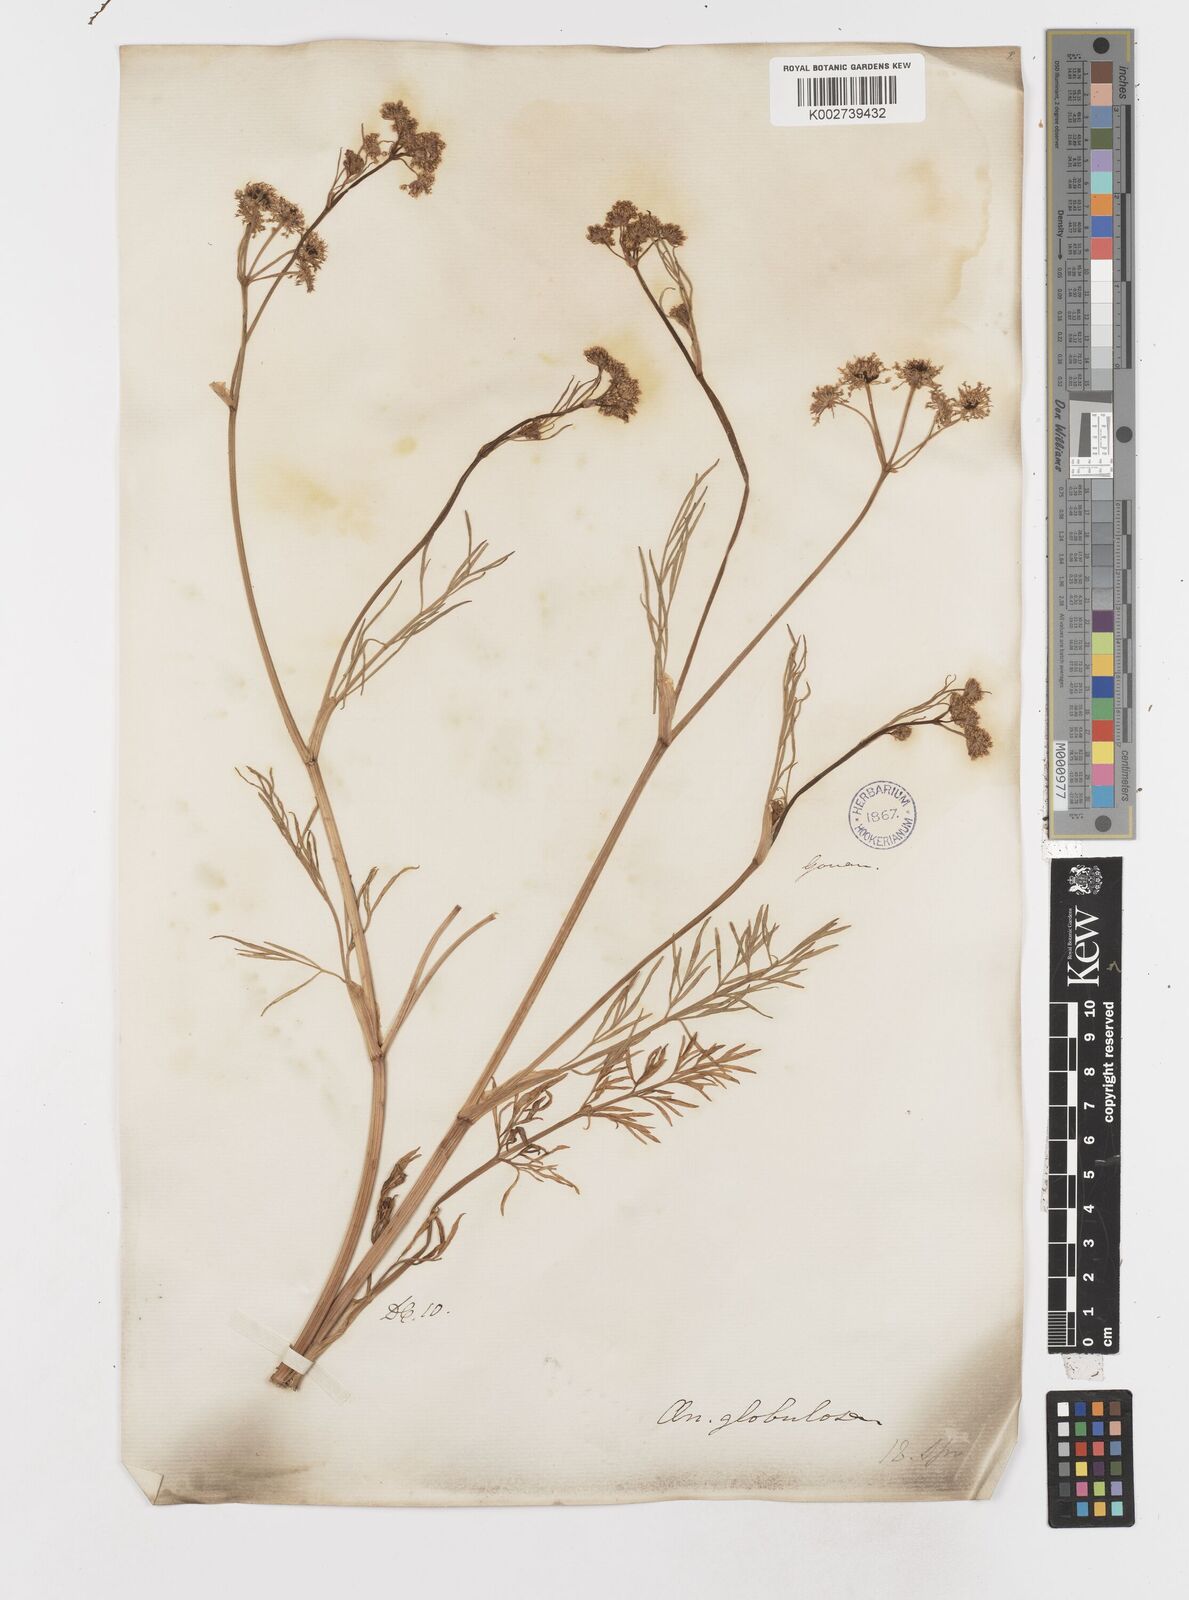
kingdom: Plantae
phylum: Tracheophyta
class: Magnoliopsida
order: Apiales
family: Apiaceae
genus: Oenanthe
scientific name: Oenanthe globulosa
